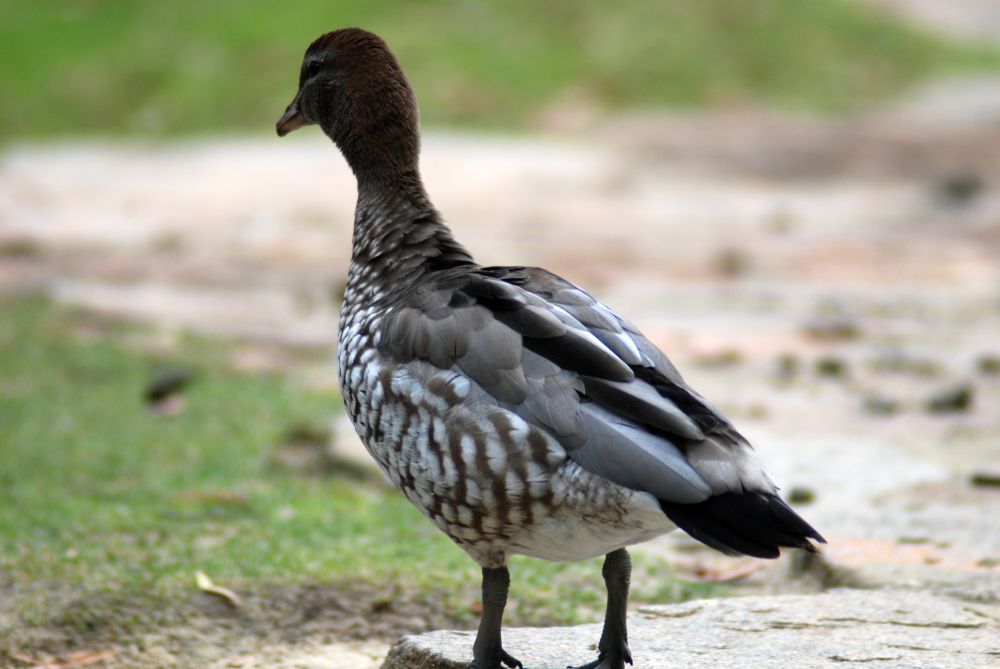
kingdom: Animalia
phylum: Chordata
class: Aves
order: Anseriformes
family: Anatidae
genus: Chenonetta
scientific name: Chenonetta jubata
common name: Maned duck
